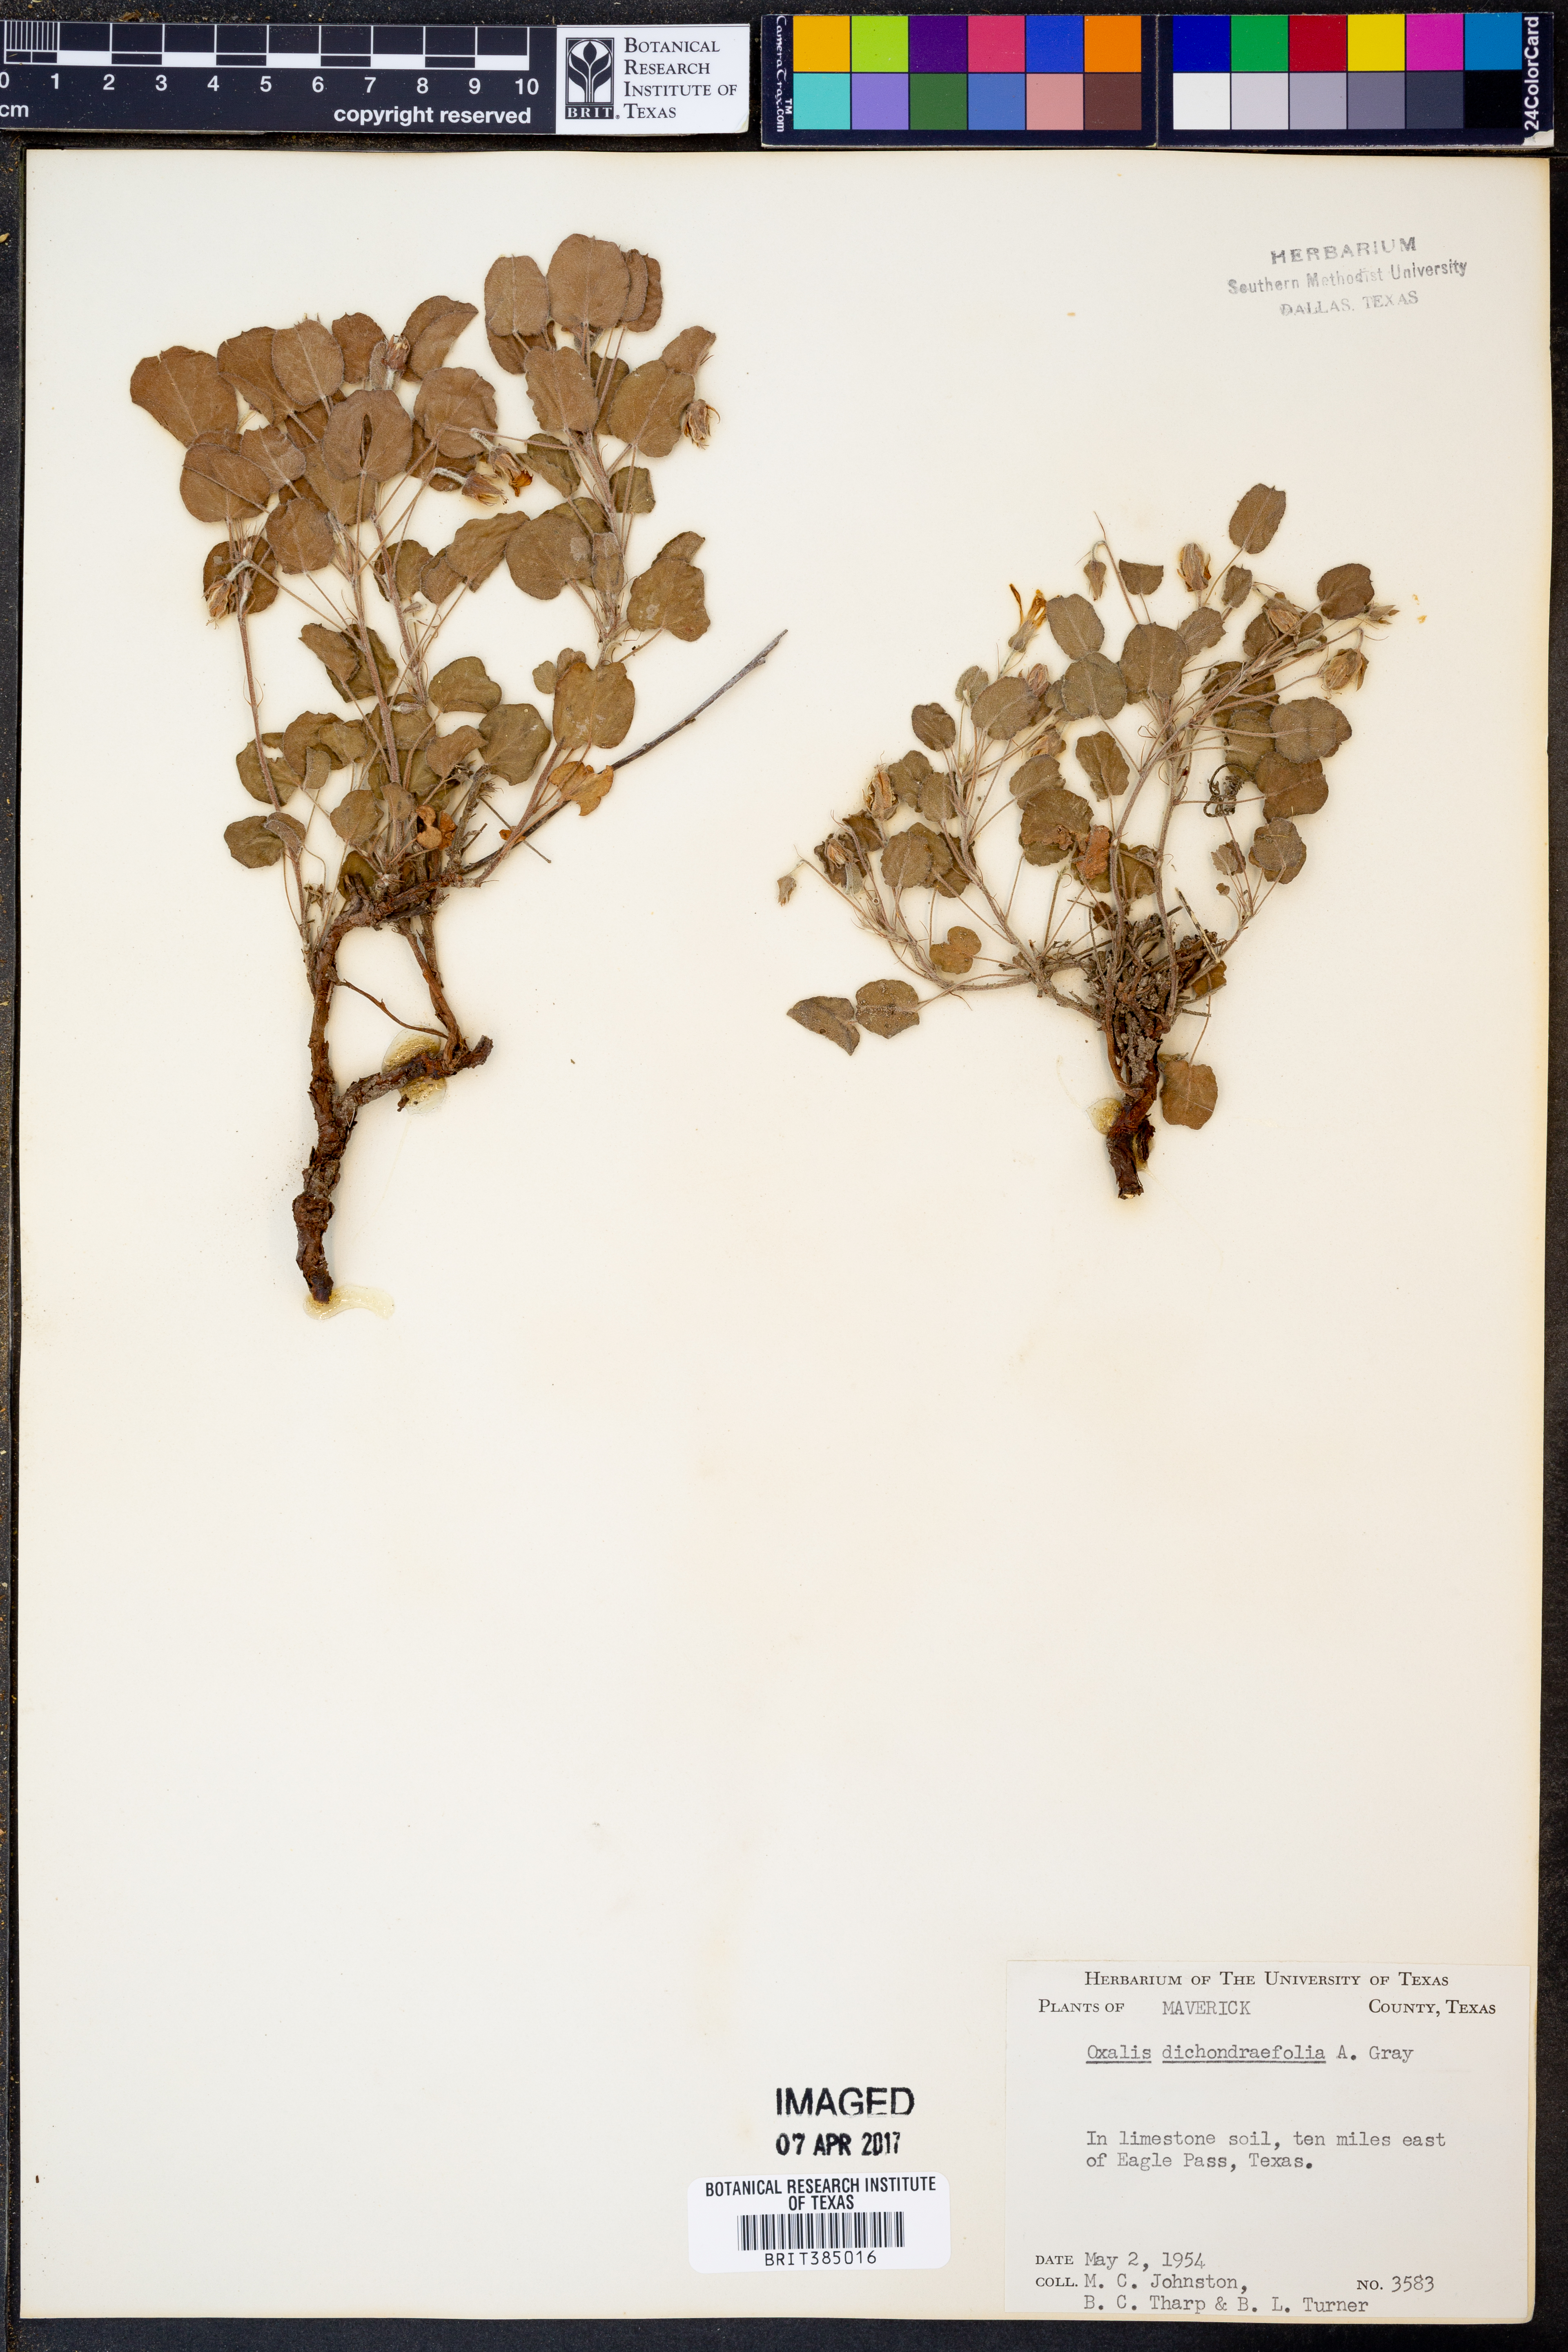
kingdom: Plantae
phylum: Tracheophyta
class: Magnoliopsida
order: Oxalidales
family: Oxalidaceae
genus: Oxalis
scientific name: Oxalis dichondrifolia
